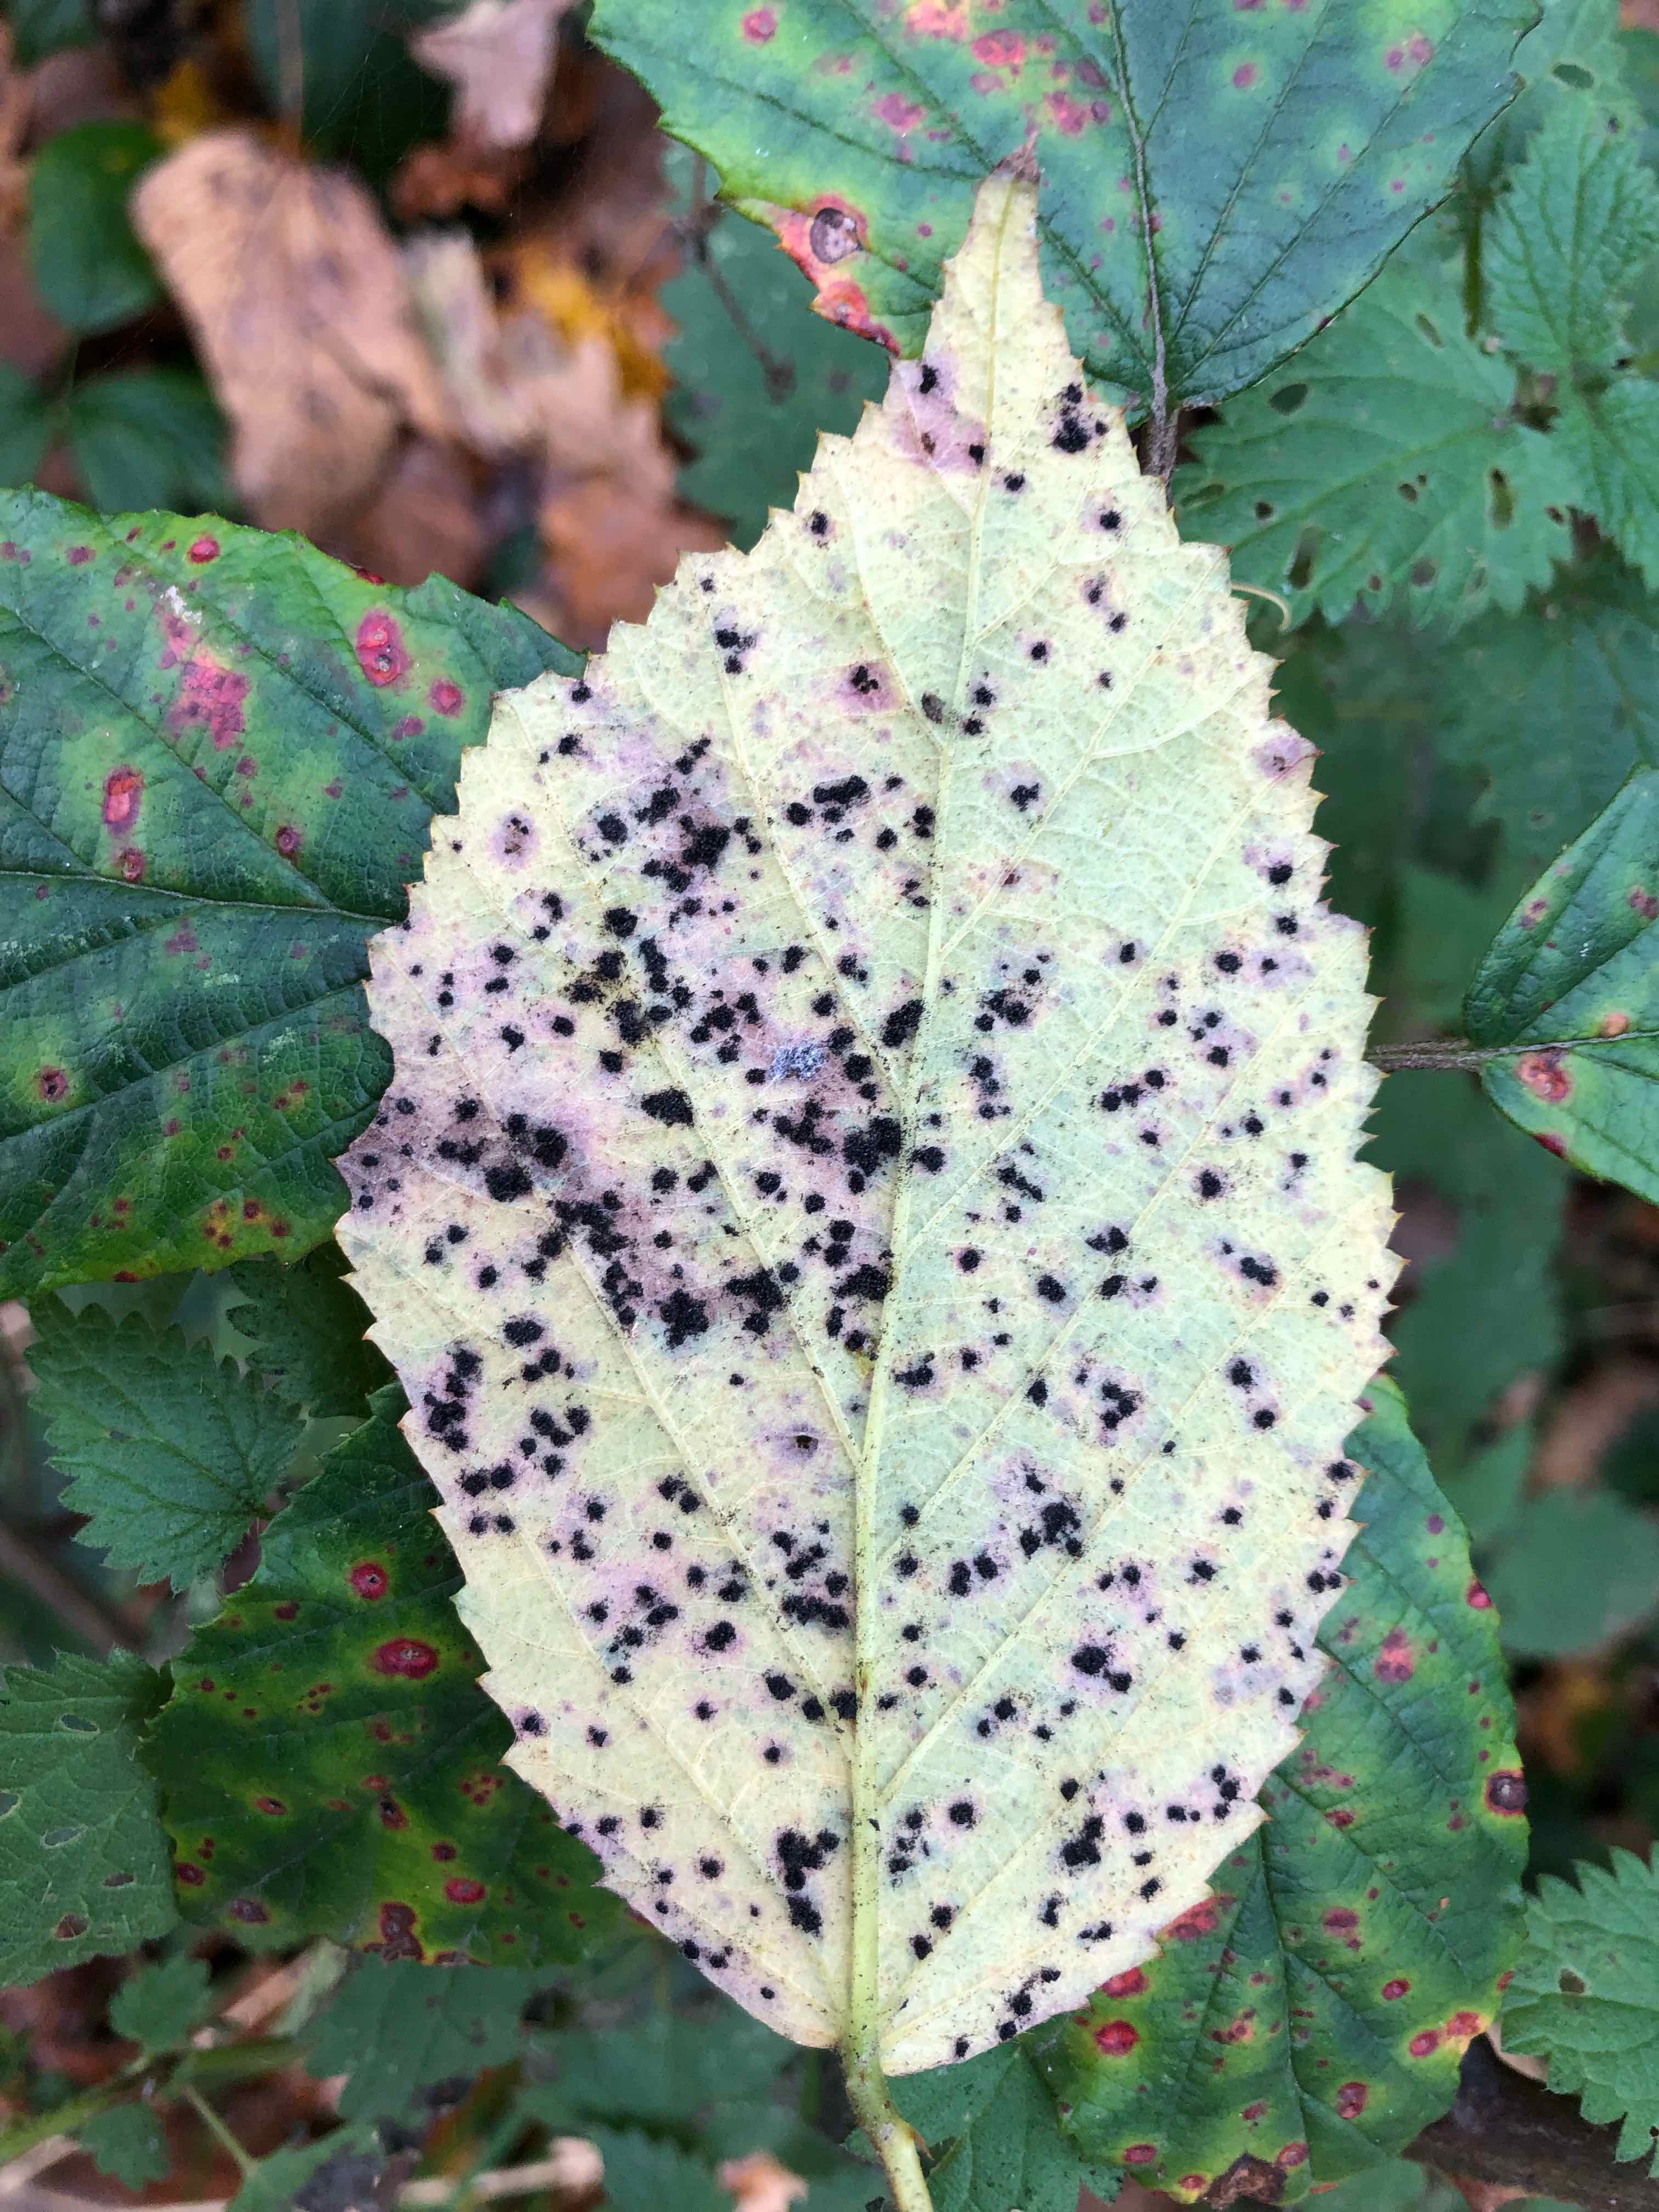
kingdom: Fungi
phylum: Basidiomycota
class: Pucciniomycetes
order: Pucciniales
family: Phragmidiaceae
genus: Phragmidium
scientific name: Phragmidium violaceum
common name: violet flercellerust
